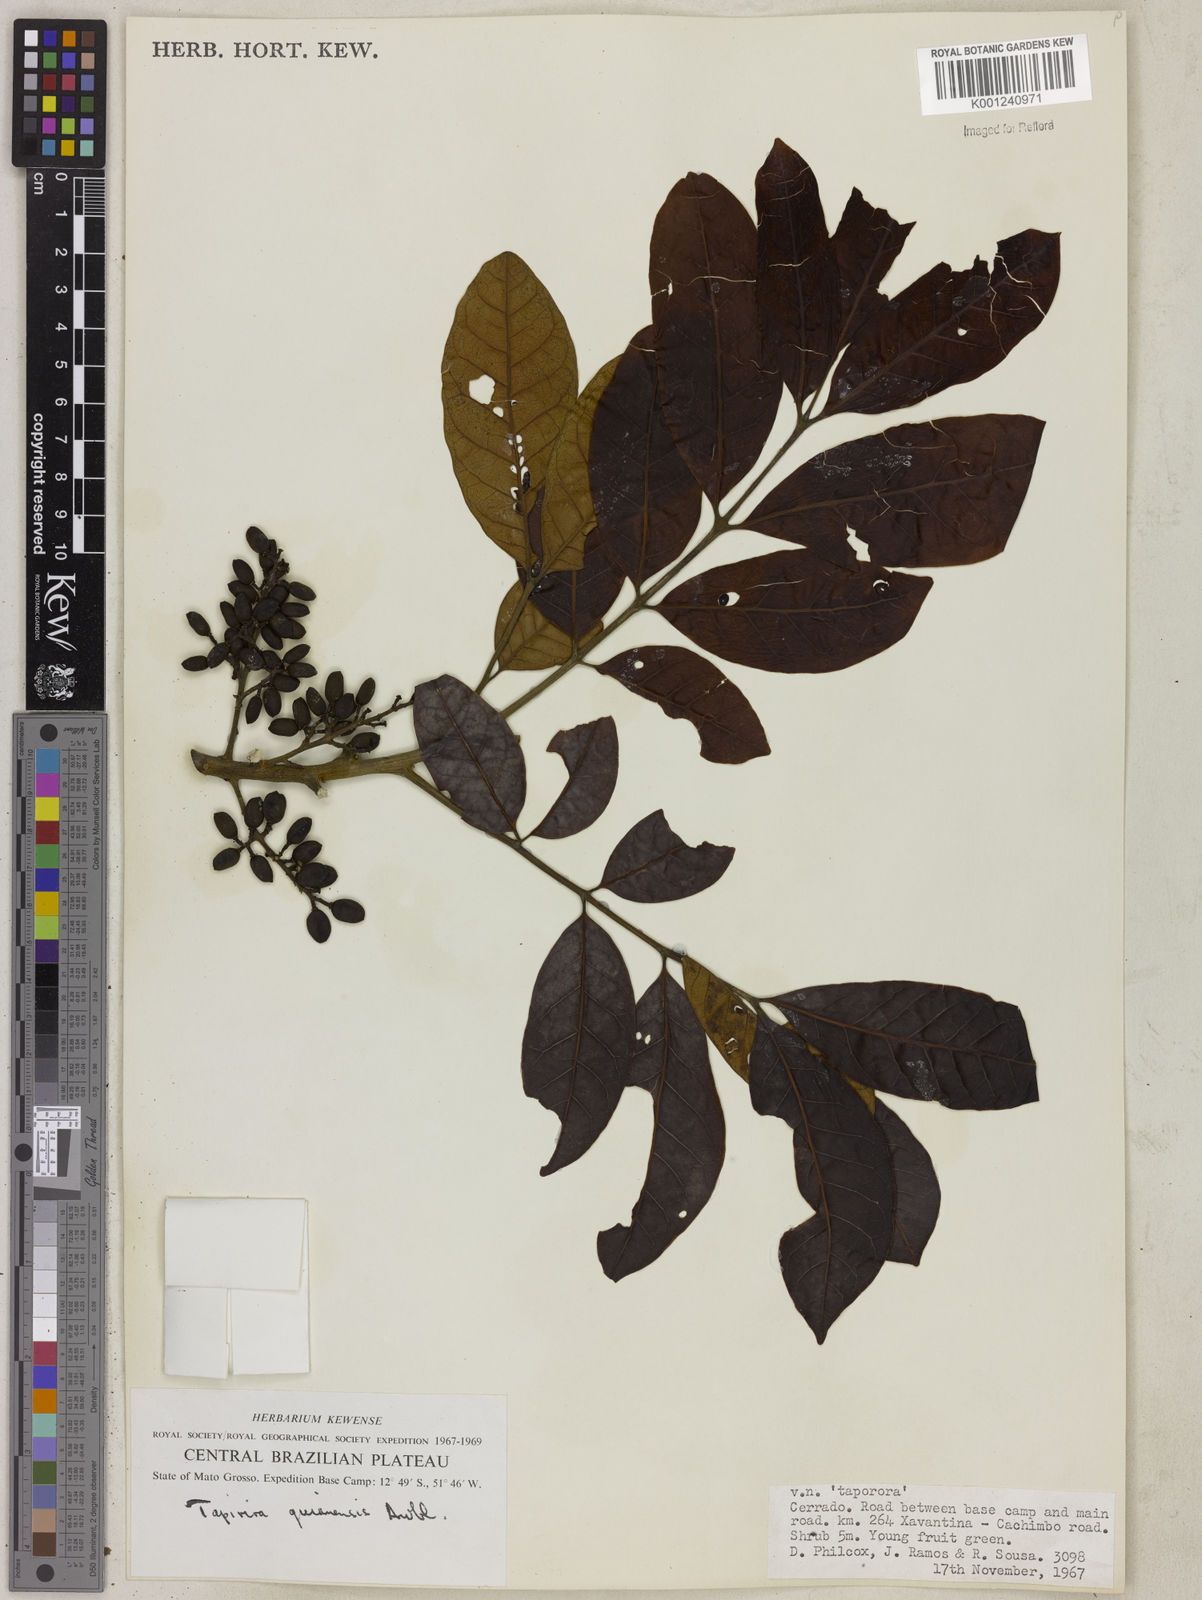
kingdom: Plantae
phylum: Tracheophyta
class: Magnoliopsida
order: Sapindales
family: Anacardiaceae
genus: Tapirira
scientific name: Tapirira guianensis
